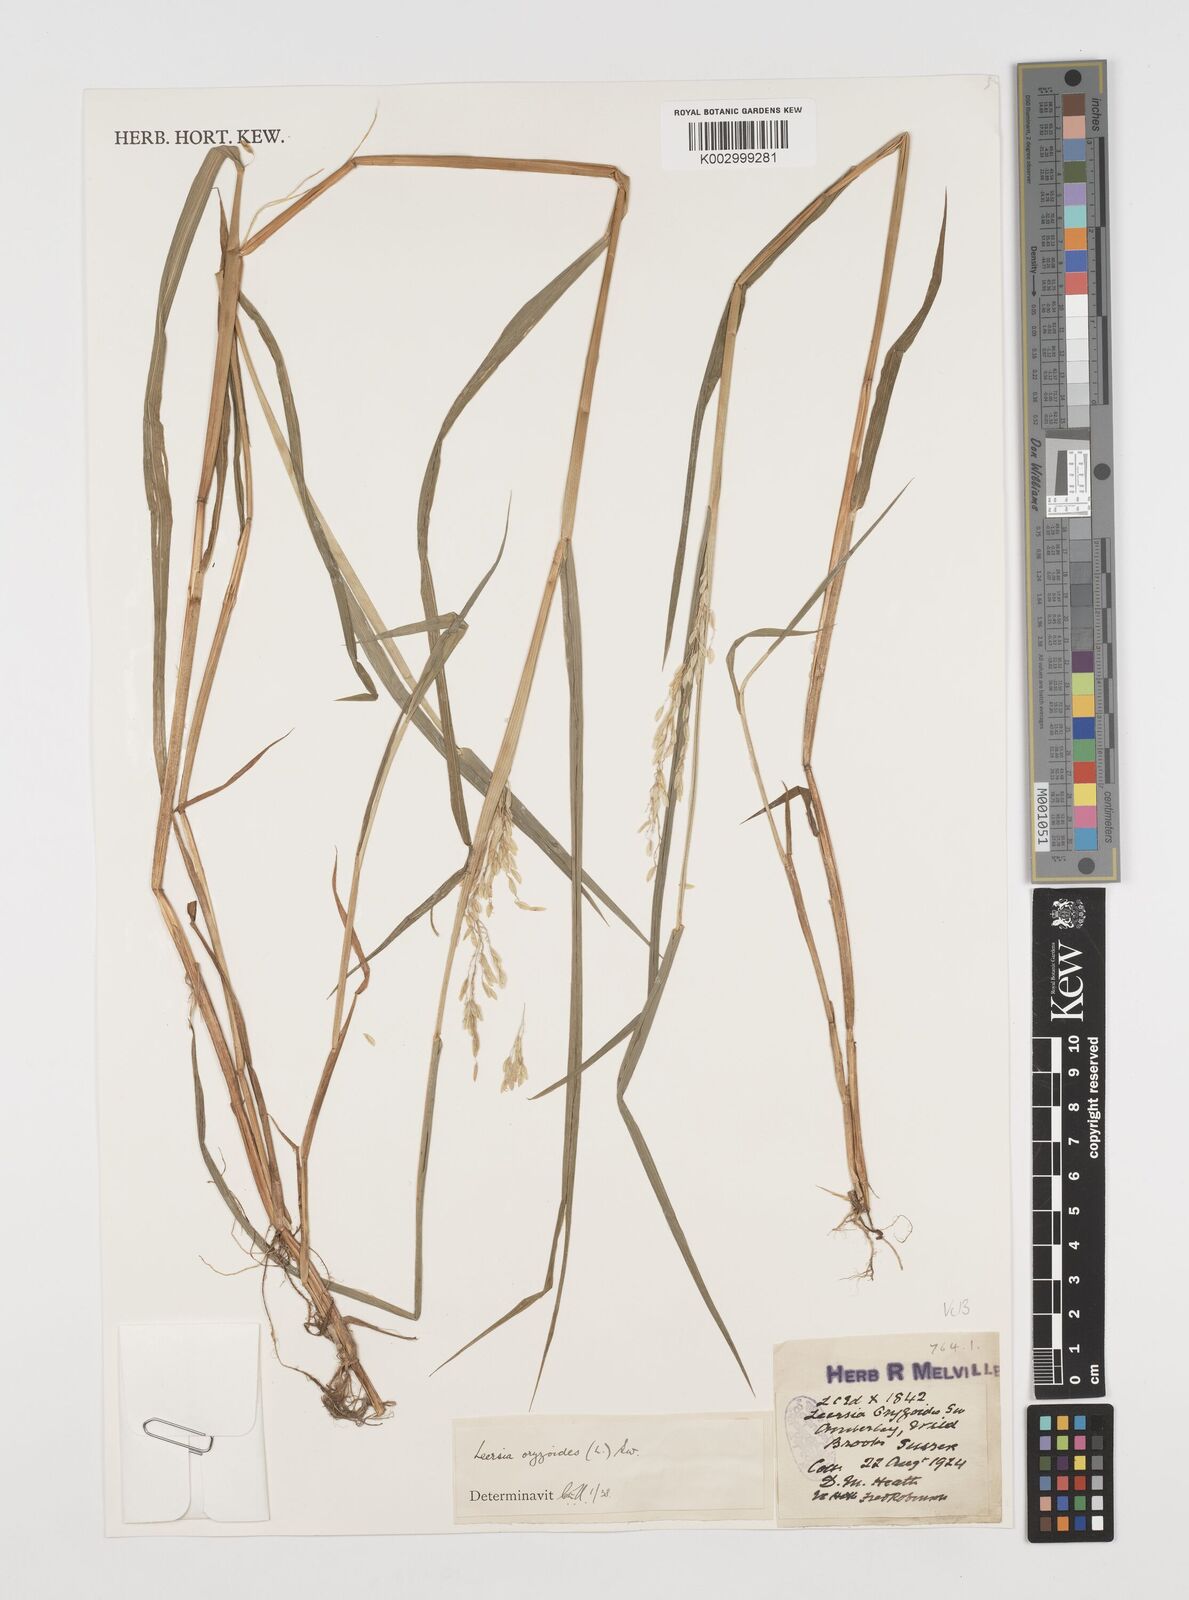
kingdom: Plantae
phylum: Tracheophyta
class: Liliopsida
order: Poales
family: Poaceae
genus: Leersia
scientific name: Leersia oryzoides
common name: Cut-grass
